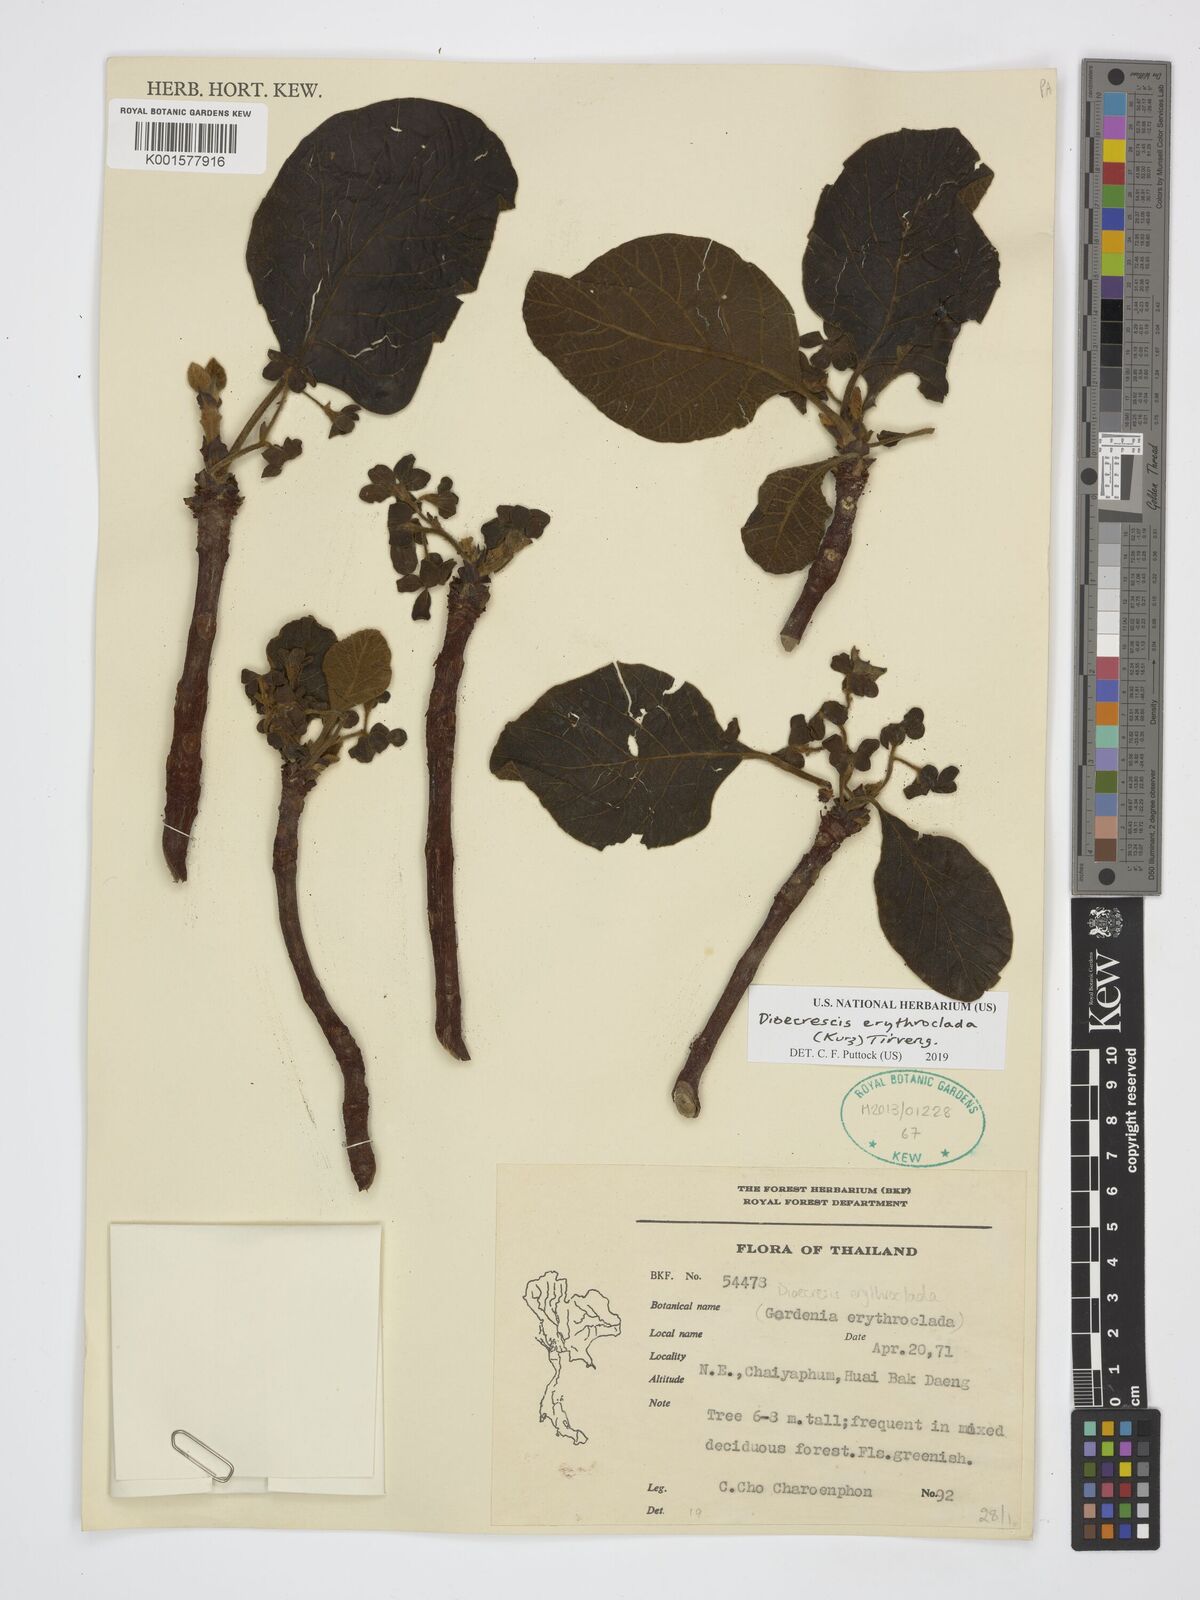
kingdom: Plantae
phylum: Tracheophyta
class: Magnoliopsida
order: Gentianales
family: Rubiaceae
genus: Dioecrescis
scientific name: Dioecrescis erythroclada
